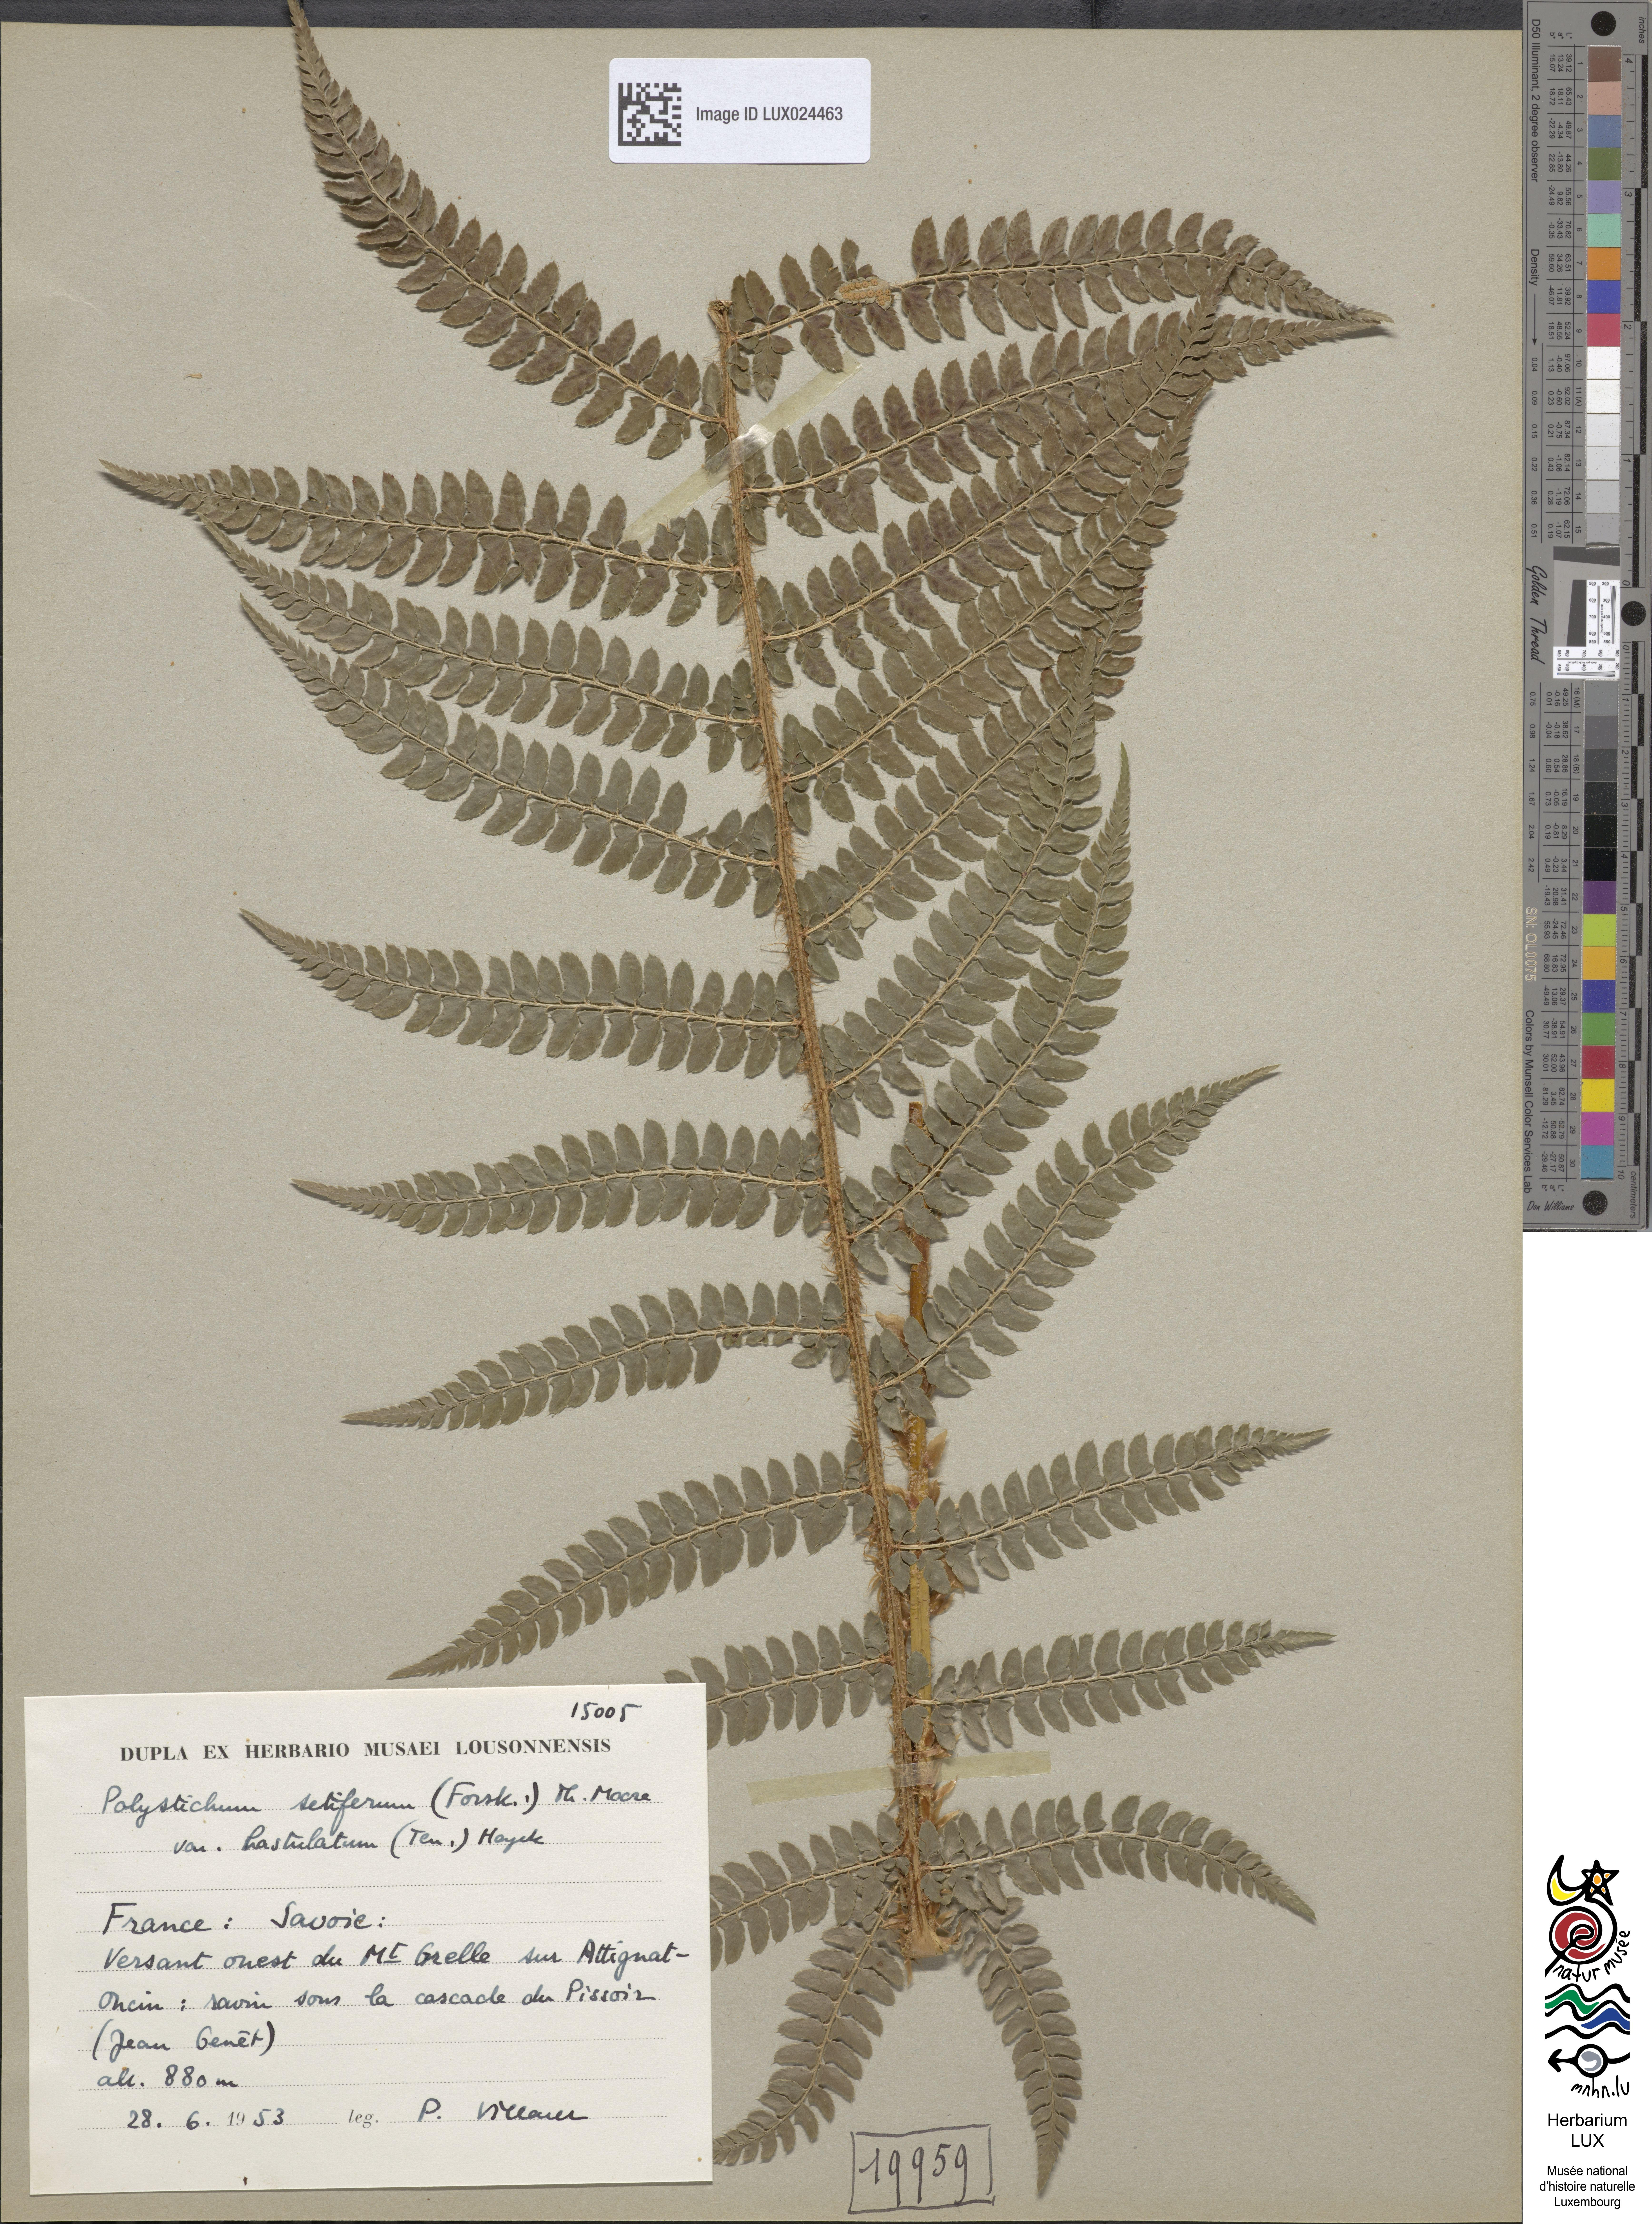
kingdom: Plantae
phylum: Tracheophyta
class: Polypodiopsida
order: Polypodiales
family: Dryopteridaceae
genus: Polystichum
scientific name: Polystichum setiferum
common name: Soft shield-fern
